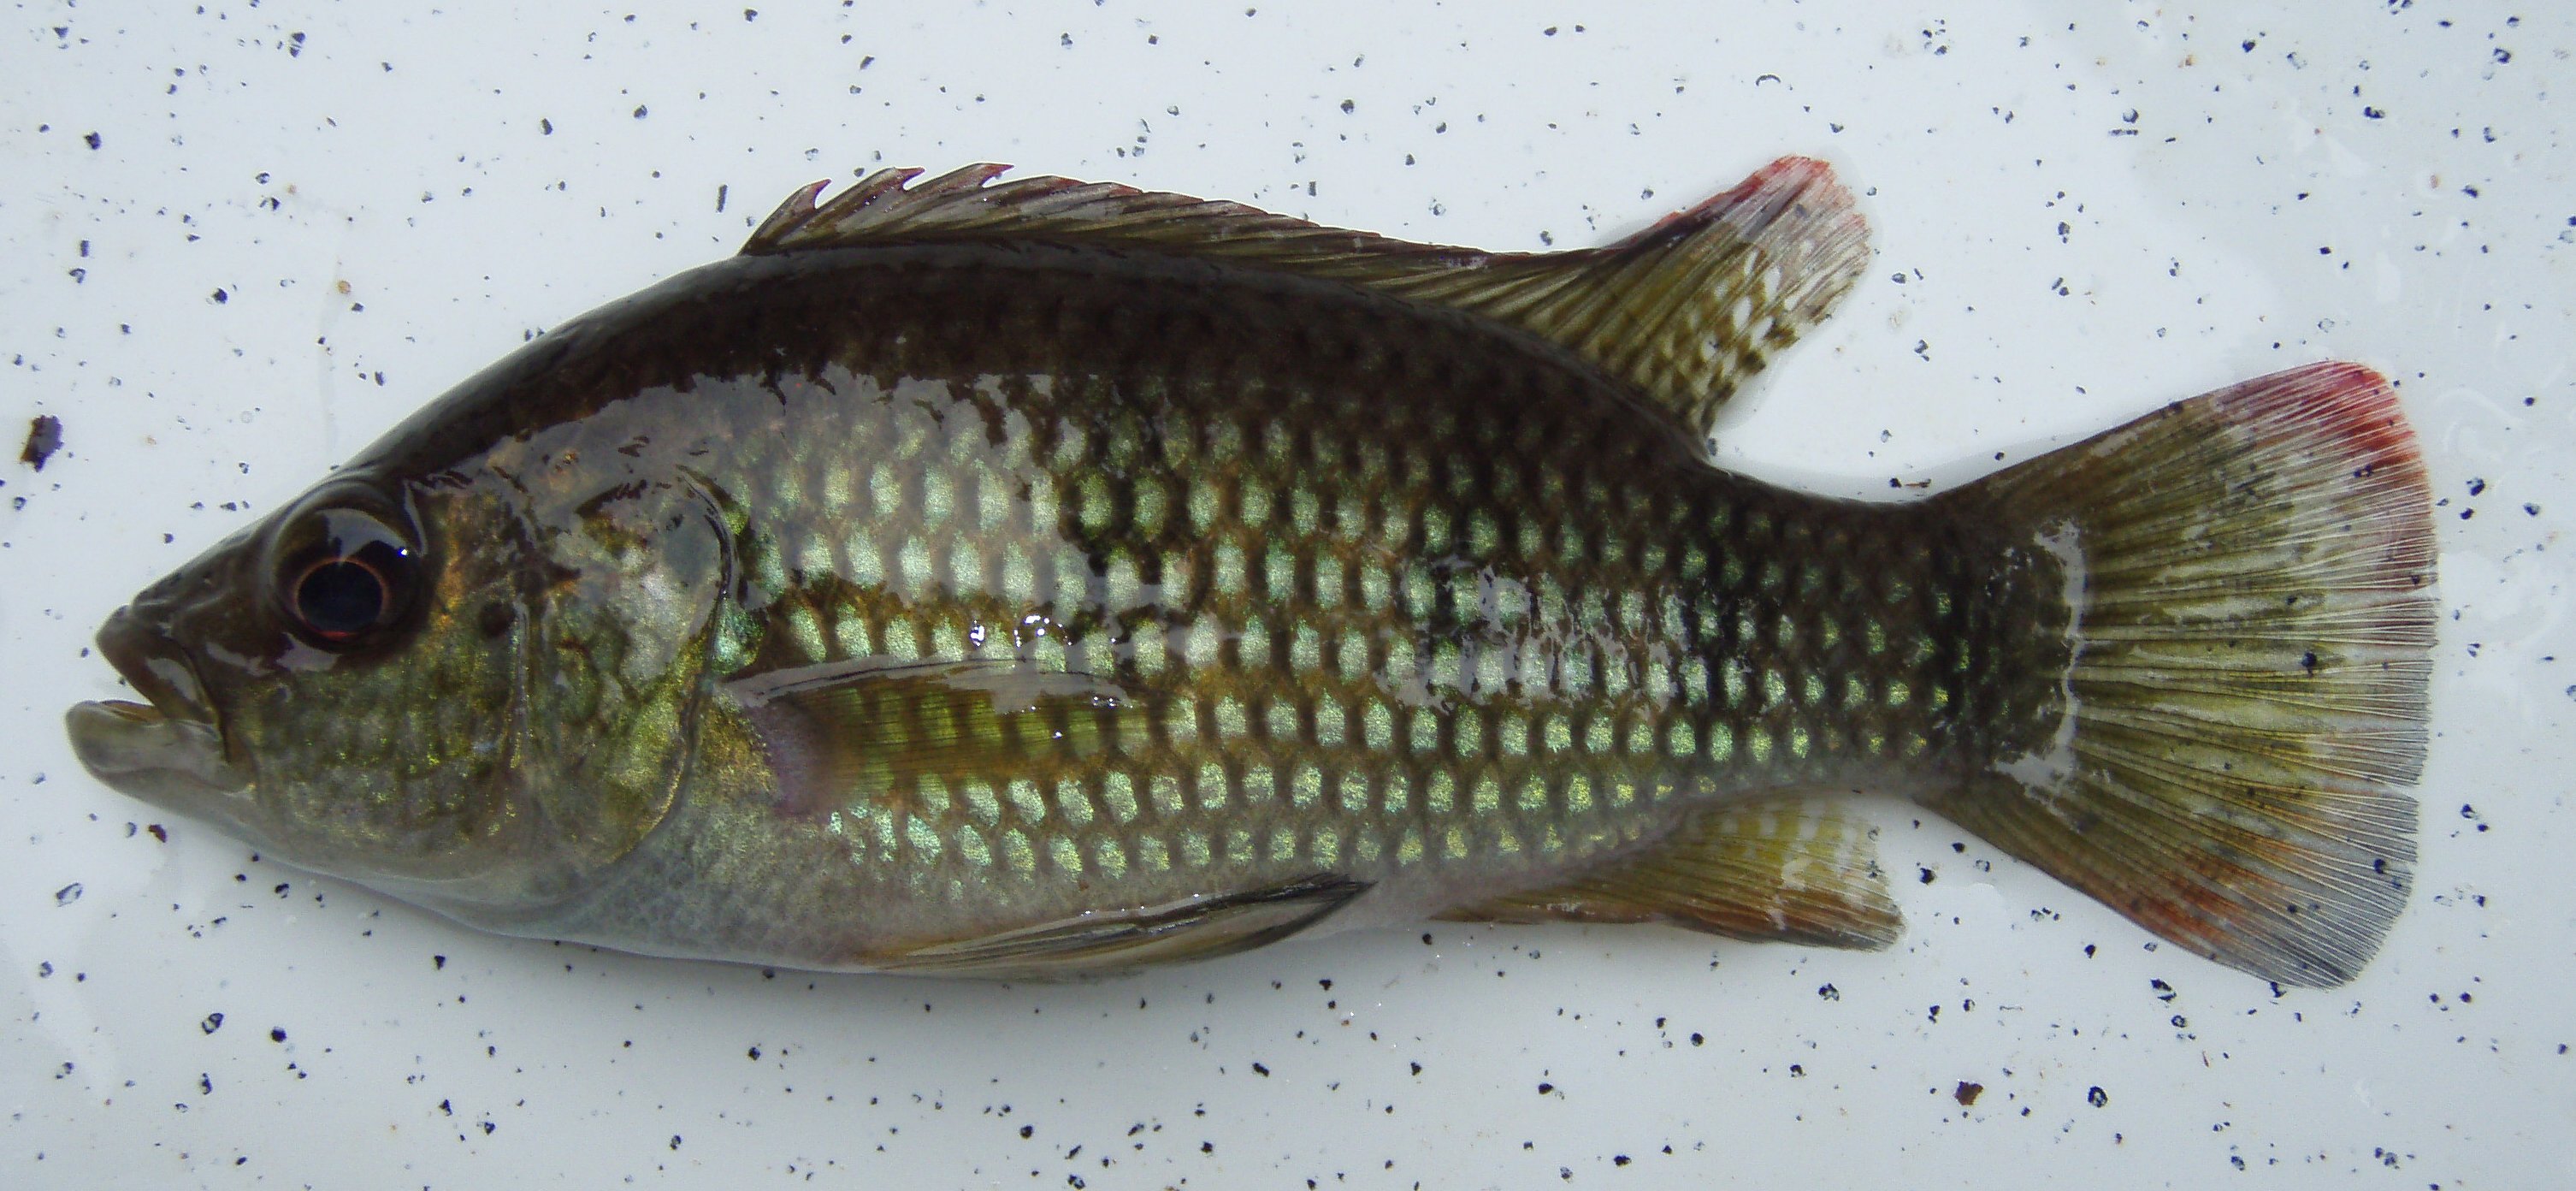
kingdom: Animalia
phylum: Chordata
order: Perciformes
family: Cichlidae
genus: Hemichromis
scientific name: Hemichromis fasciatus
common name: Banded jewelfish
